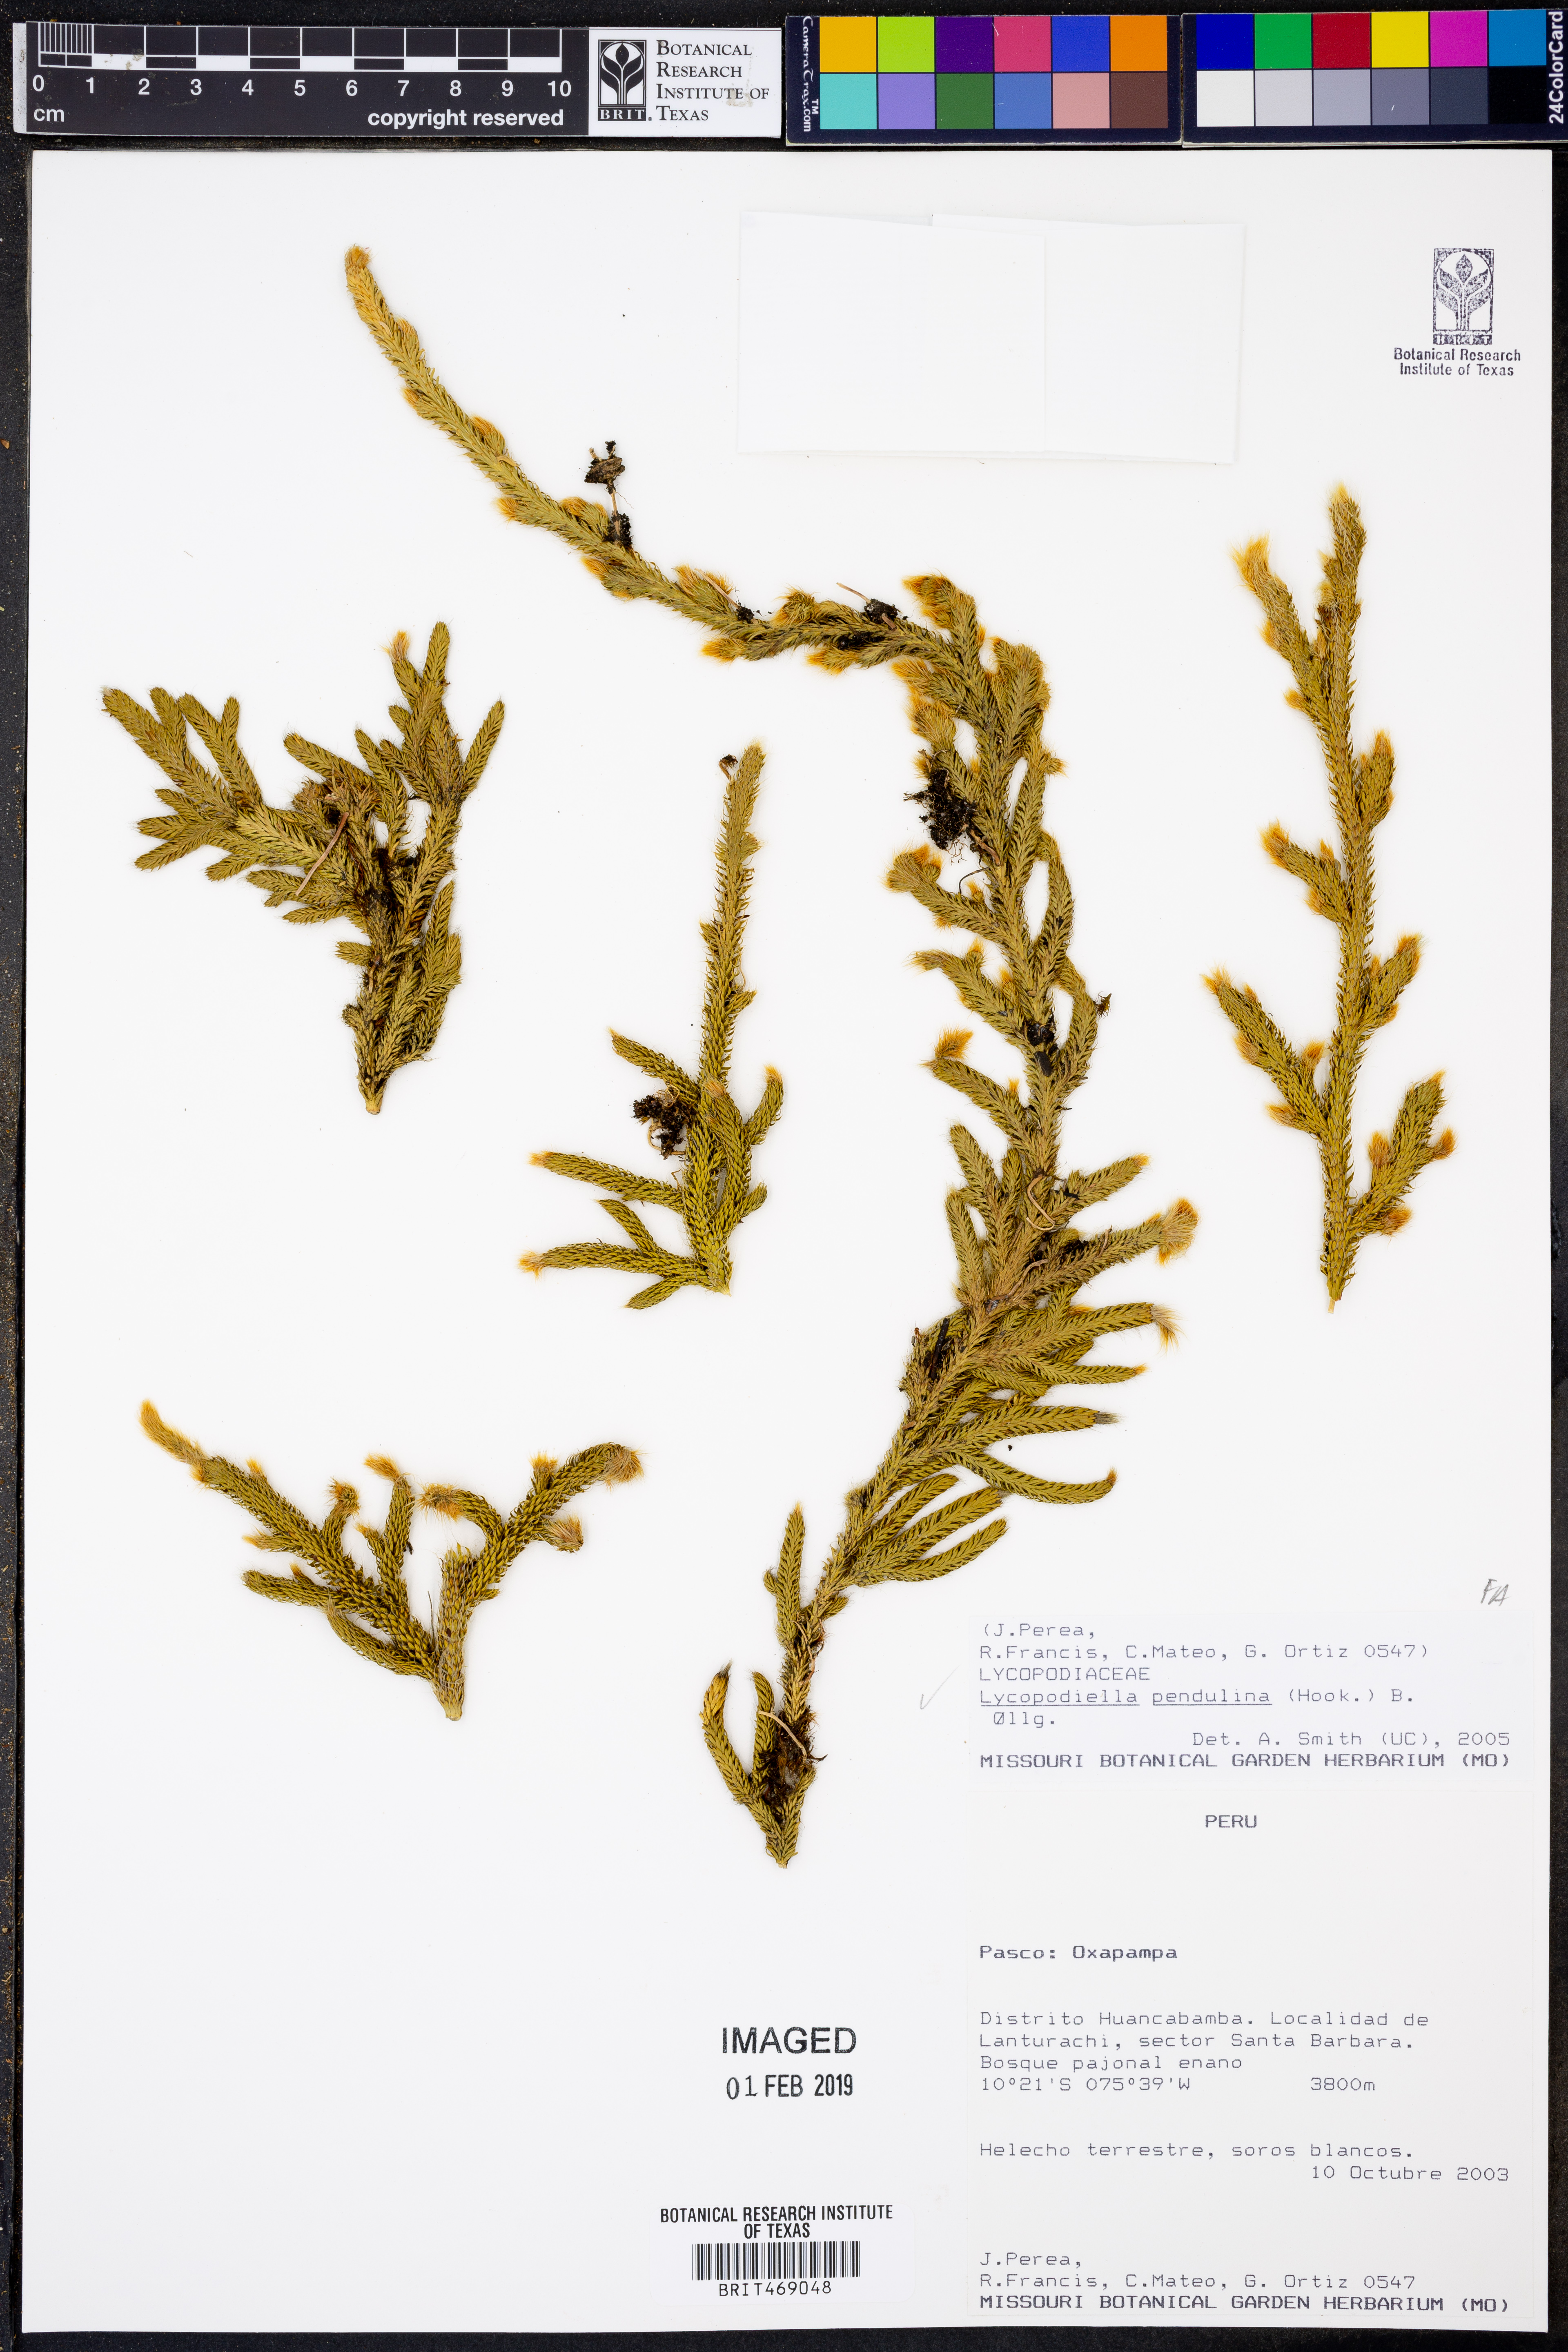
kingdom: Plantae
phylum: Tracheophyta
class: Lycopodiopsida
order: Lycopodiales
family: Lycopodiaceae
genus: Palhinhaea
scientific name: Palhinhaea pendulina
